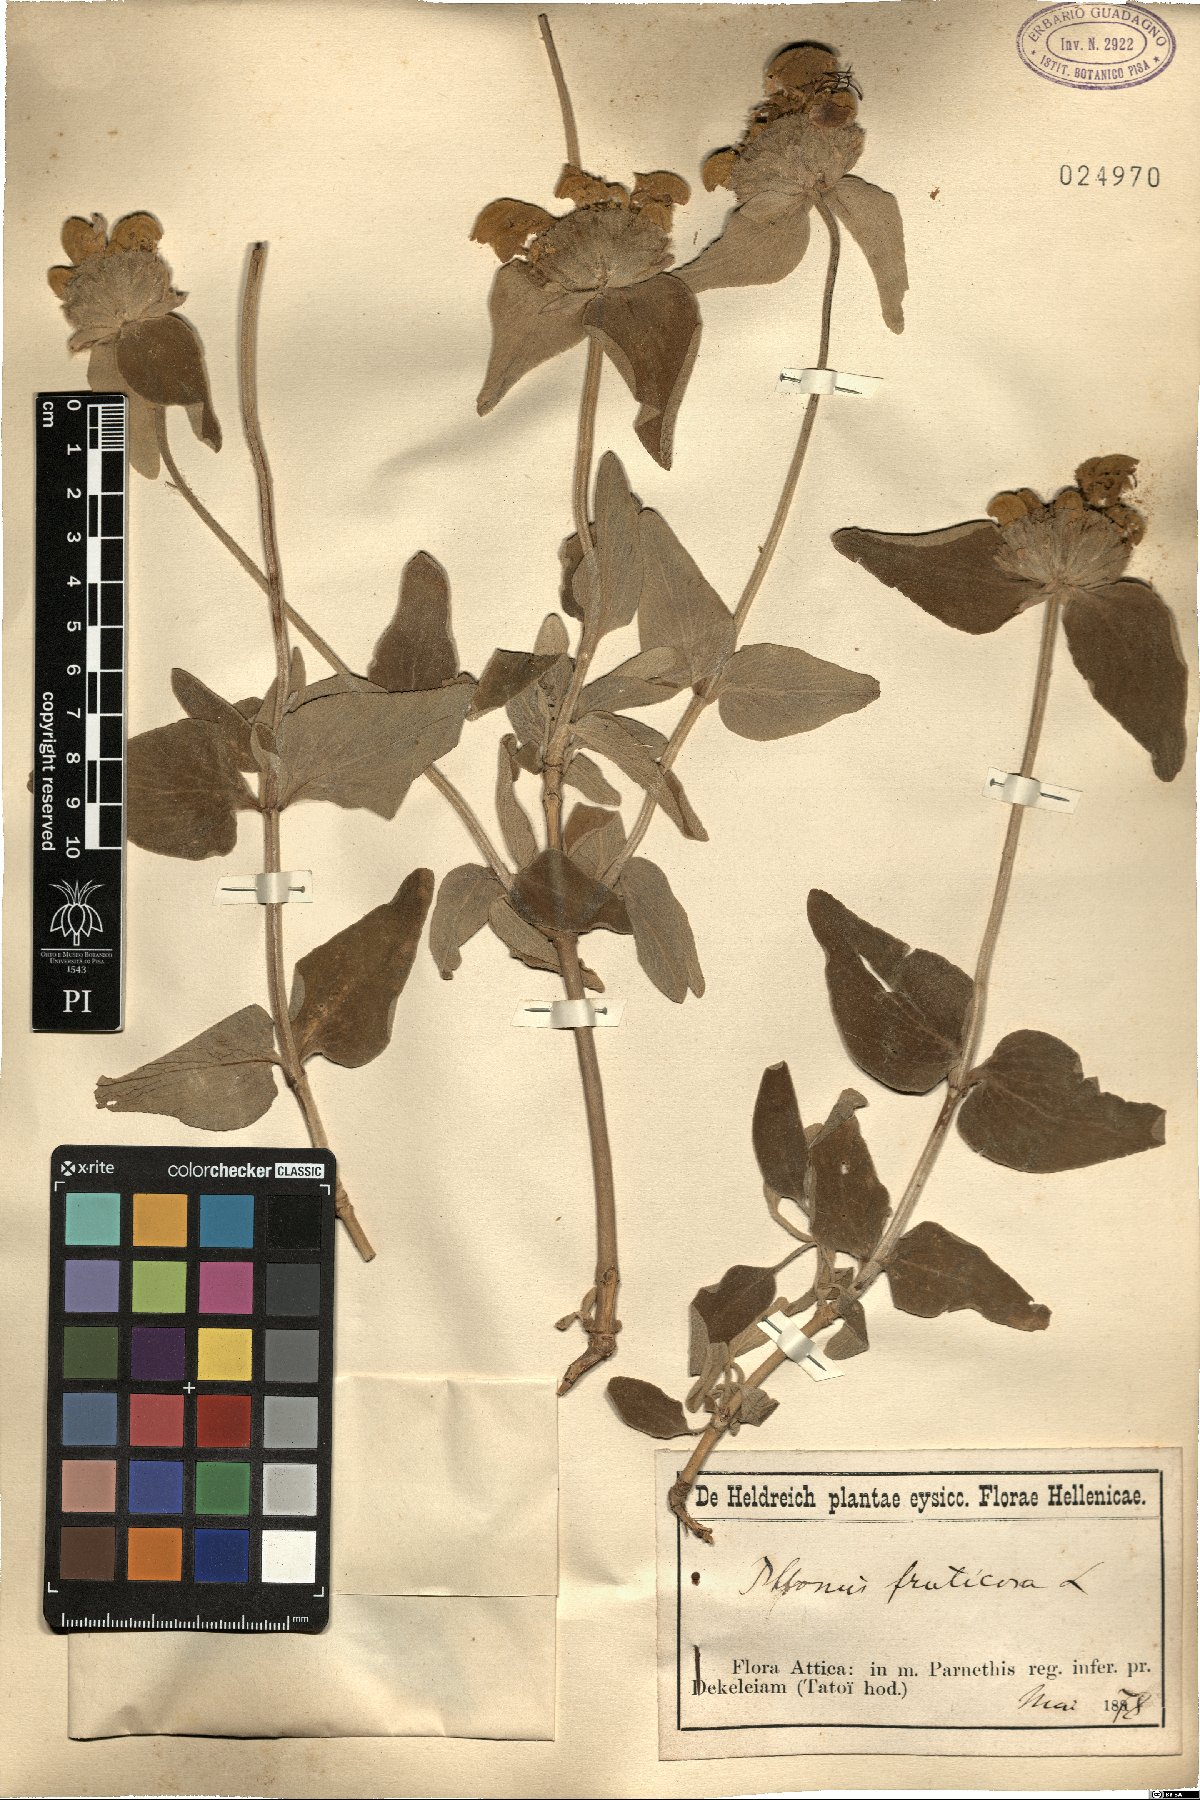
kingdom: Plantae
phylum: Tracheophyta
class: Magnoliopsida
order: Lamiales
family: Lamiaceae
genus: Phlomis
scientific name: Phlomis fruticosa
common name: Jerusalem sage
